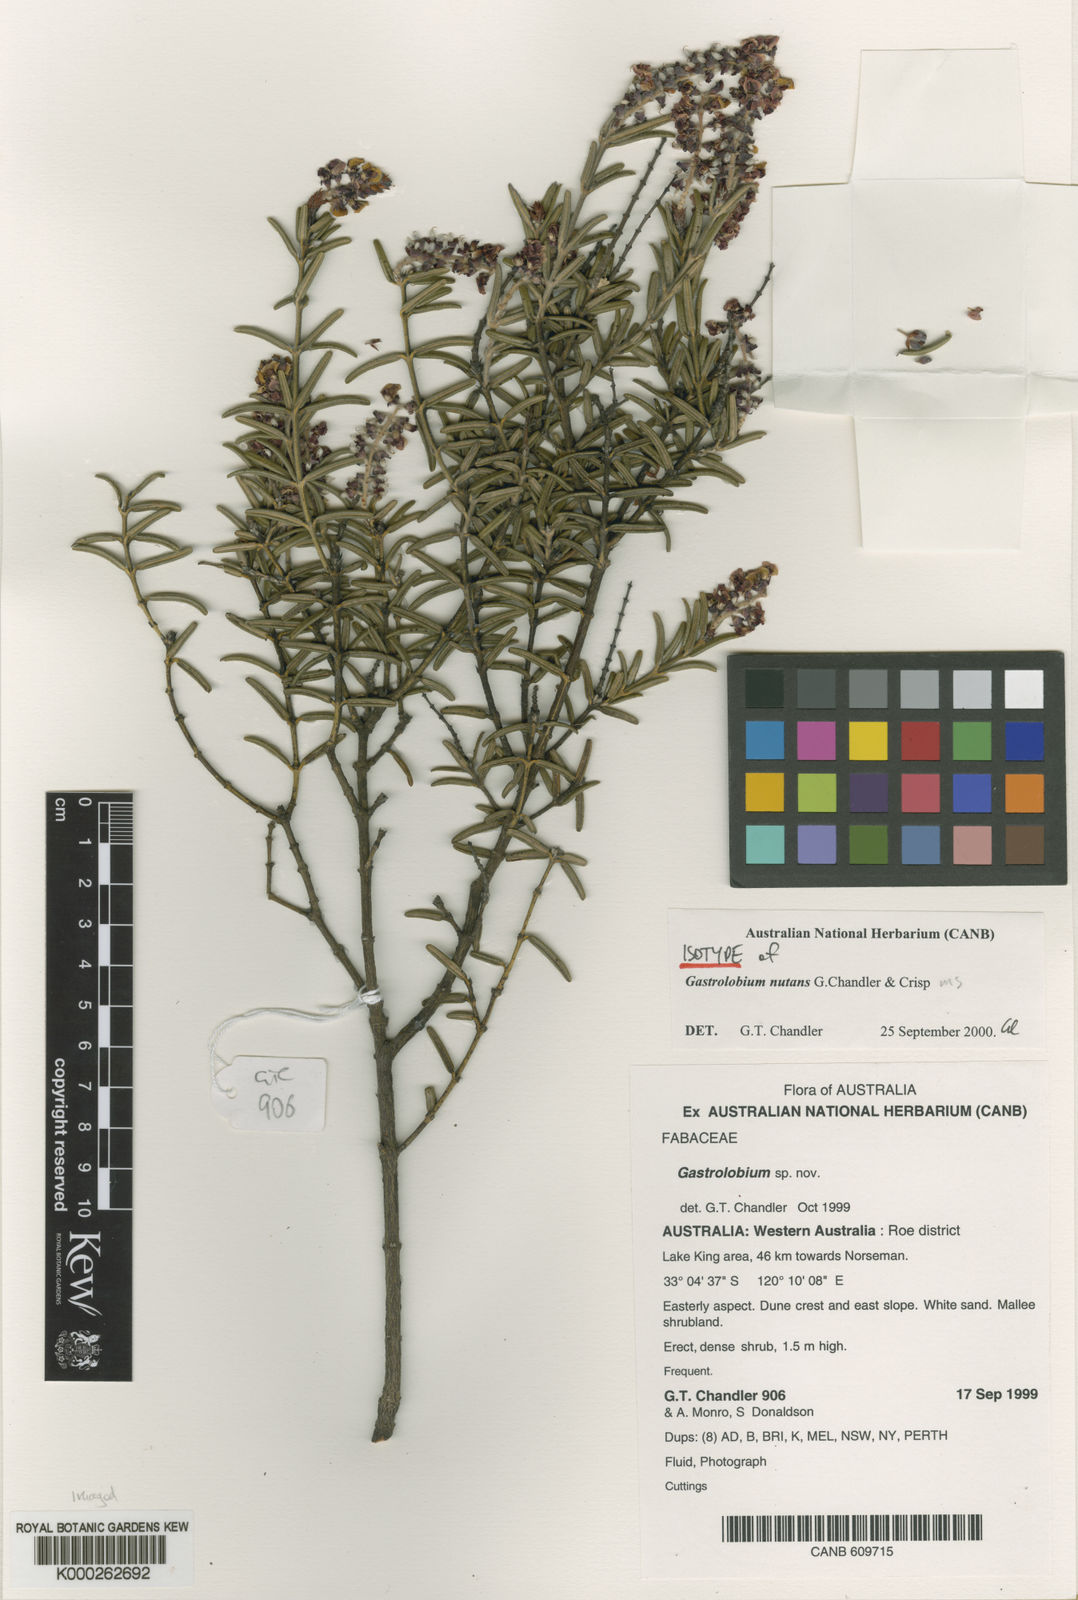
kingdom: Plantae
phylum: Tracheophyta
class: Magnoliopsida
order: Fabales
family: Fabaceae
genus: Gastrolobium
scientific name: Gastrolobium
